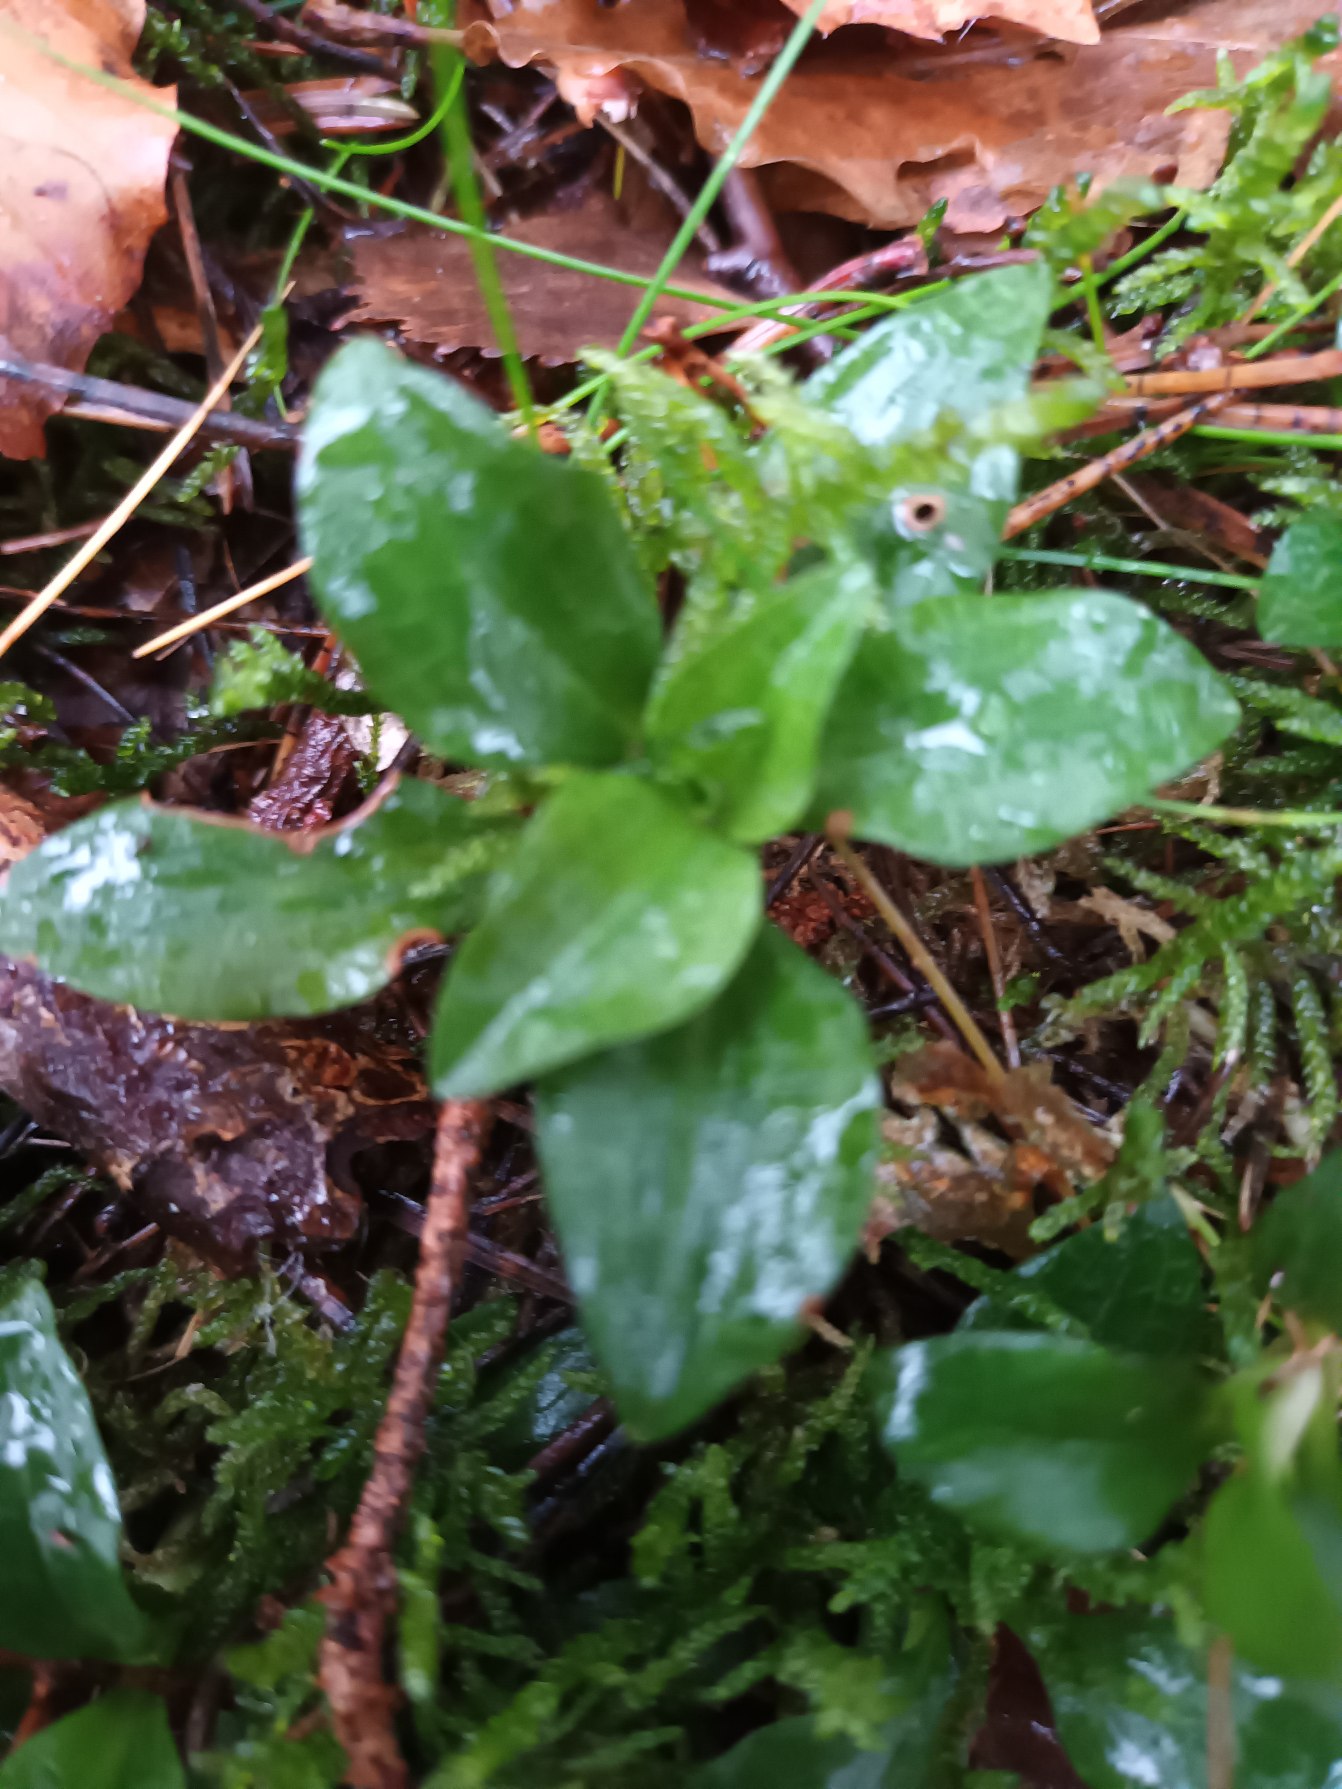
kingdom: Plantae
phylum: Tracheophyta
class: Liliopsida
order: Asparagales
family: Orchidaceae
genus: Goodyera
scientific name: Goodyera repens
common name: Knærod
